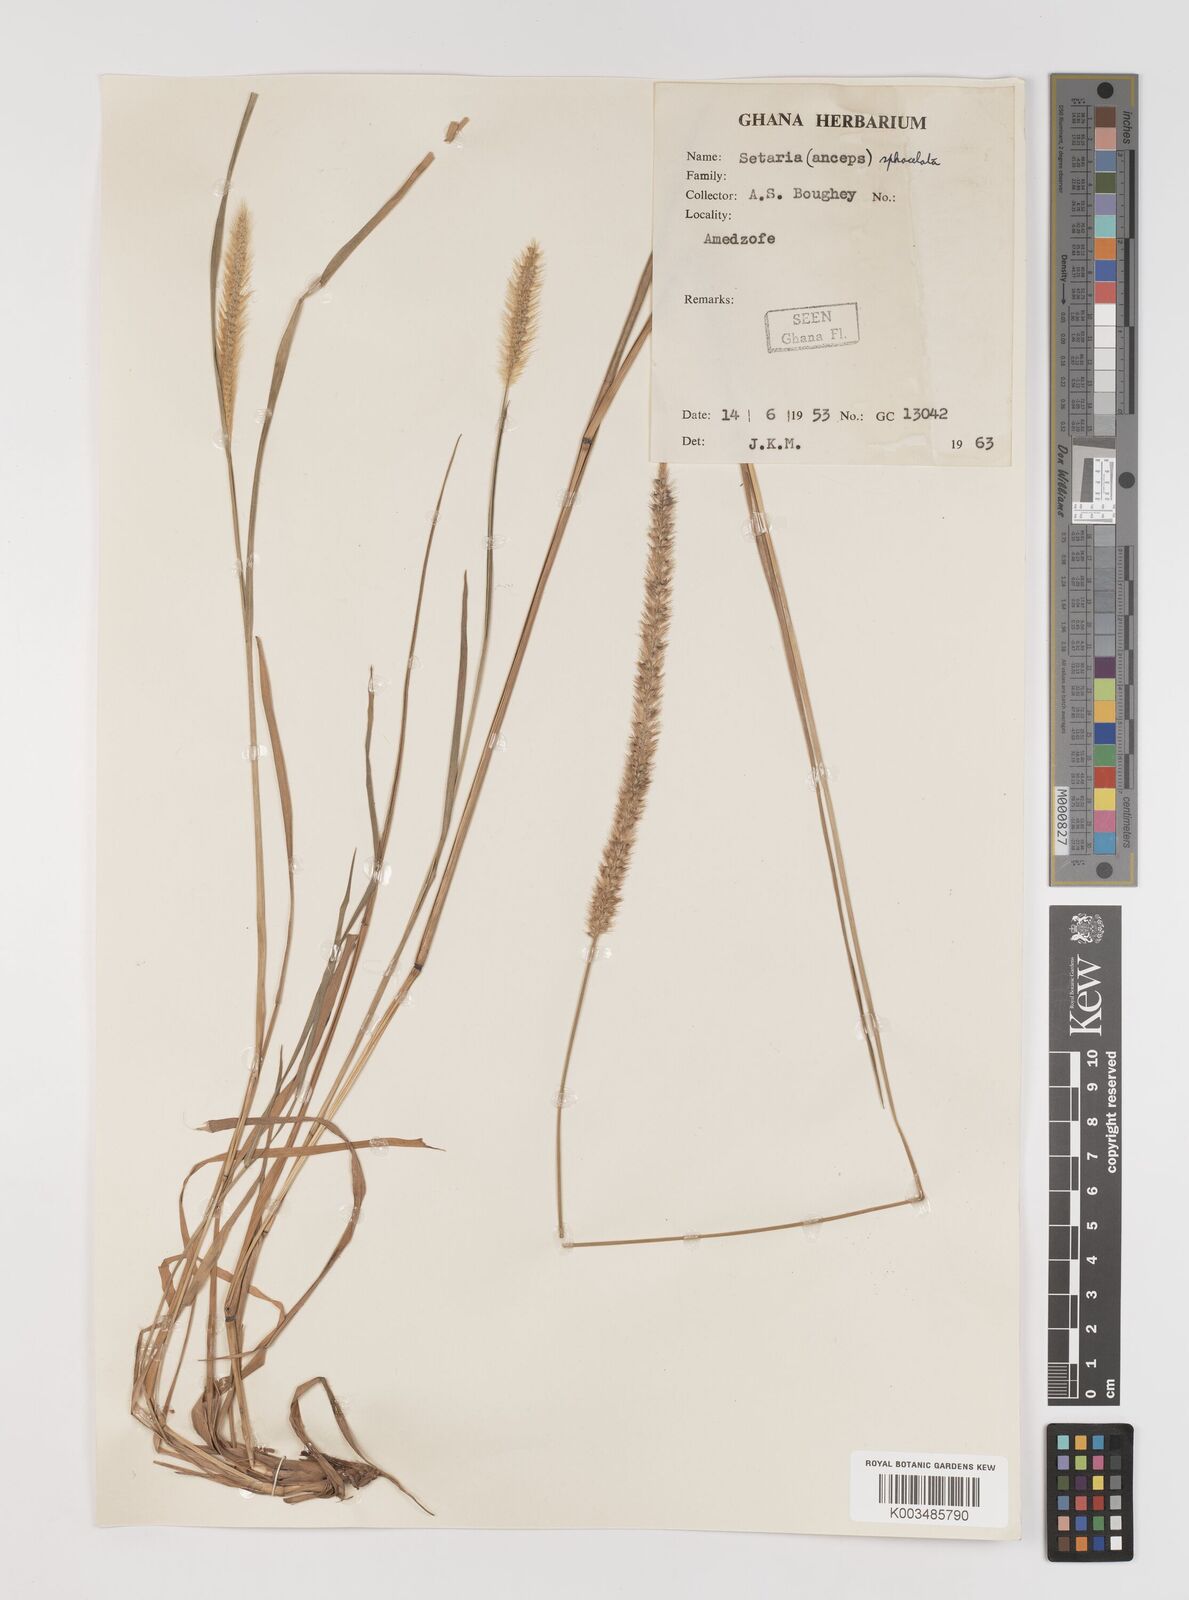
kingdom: Plantae
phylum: Tracheophyta
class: Liliopsida
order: Poales
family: Poaceae
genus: Setaria
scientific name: Setaria sphacelata
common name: African bristlegrass
